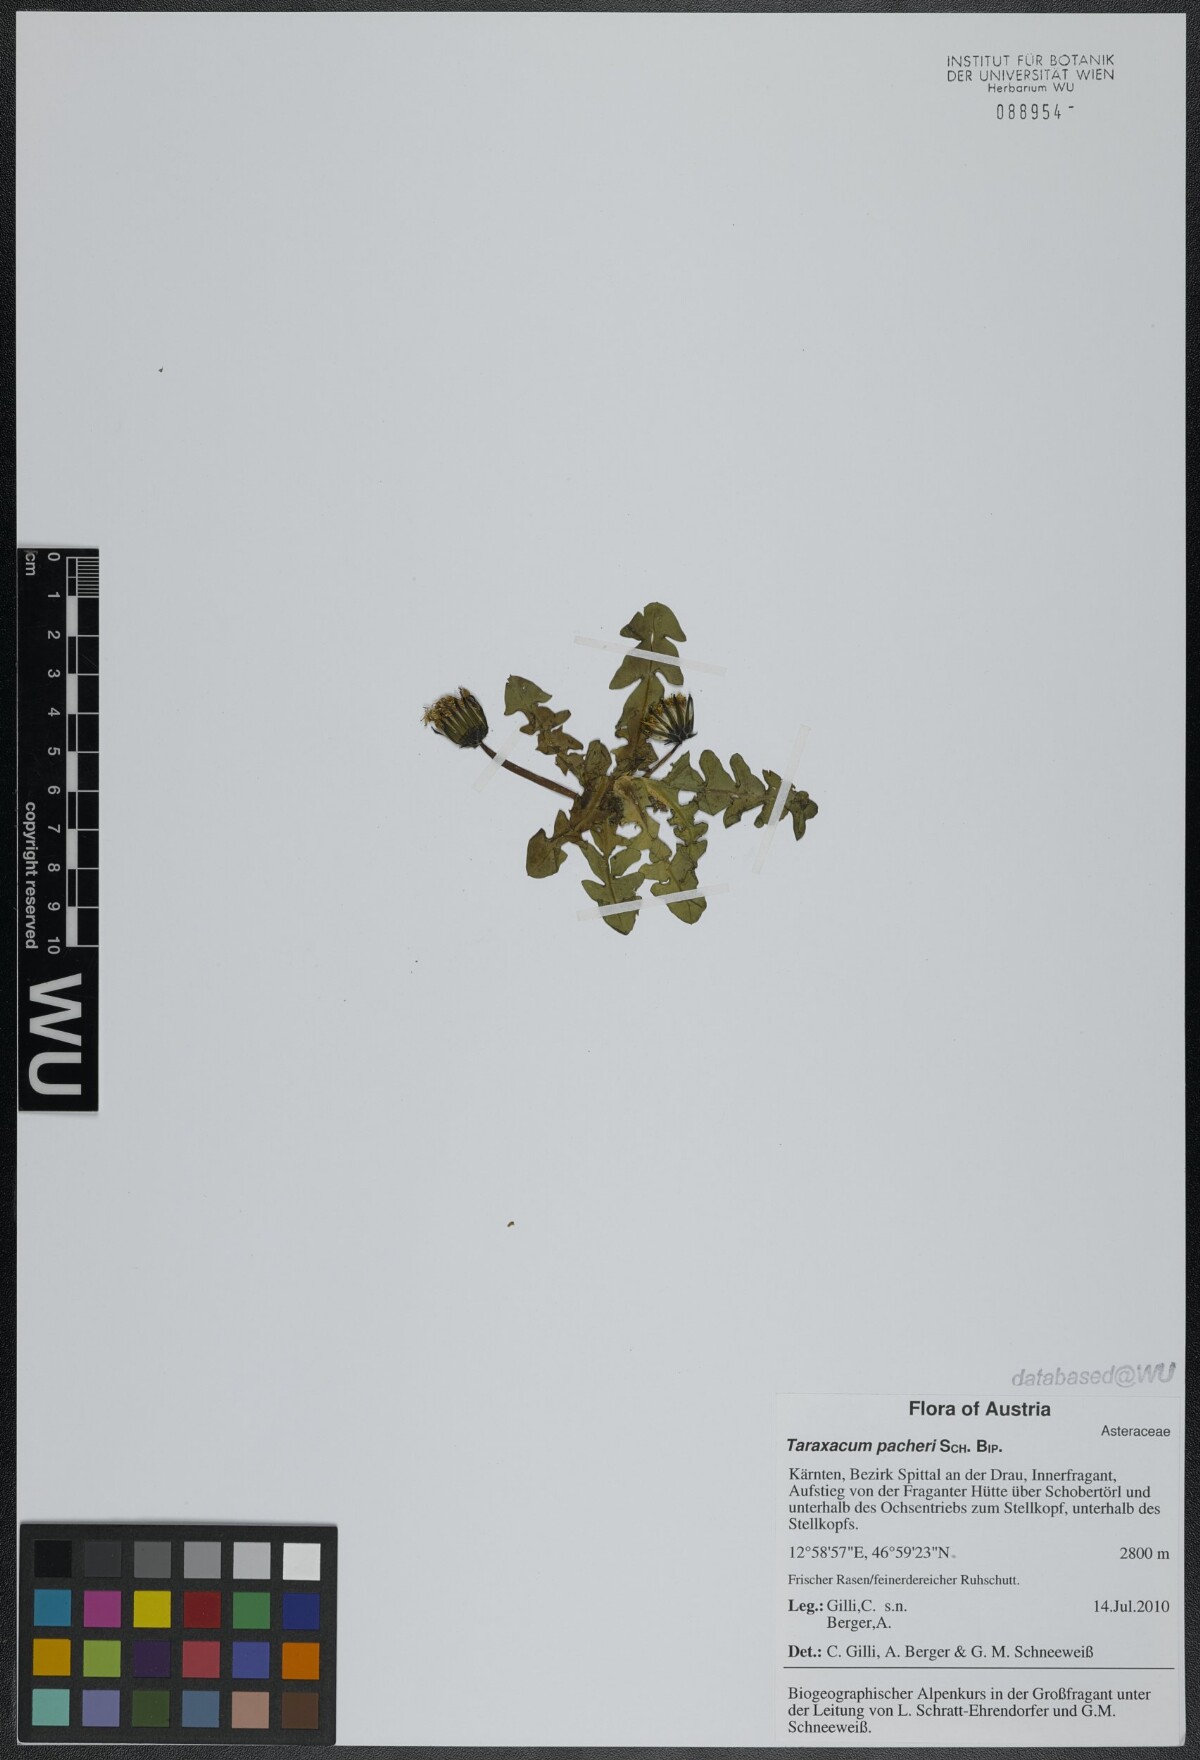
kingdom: Plantae
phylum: Tracheophyta
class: Magnoliopsida
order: Asterales
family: Asteraceae
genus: Taraxacum
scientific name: Taraxacum pacheri
